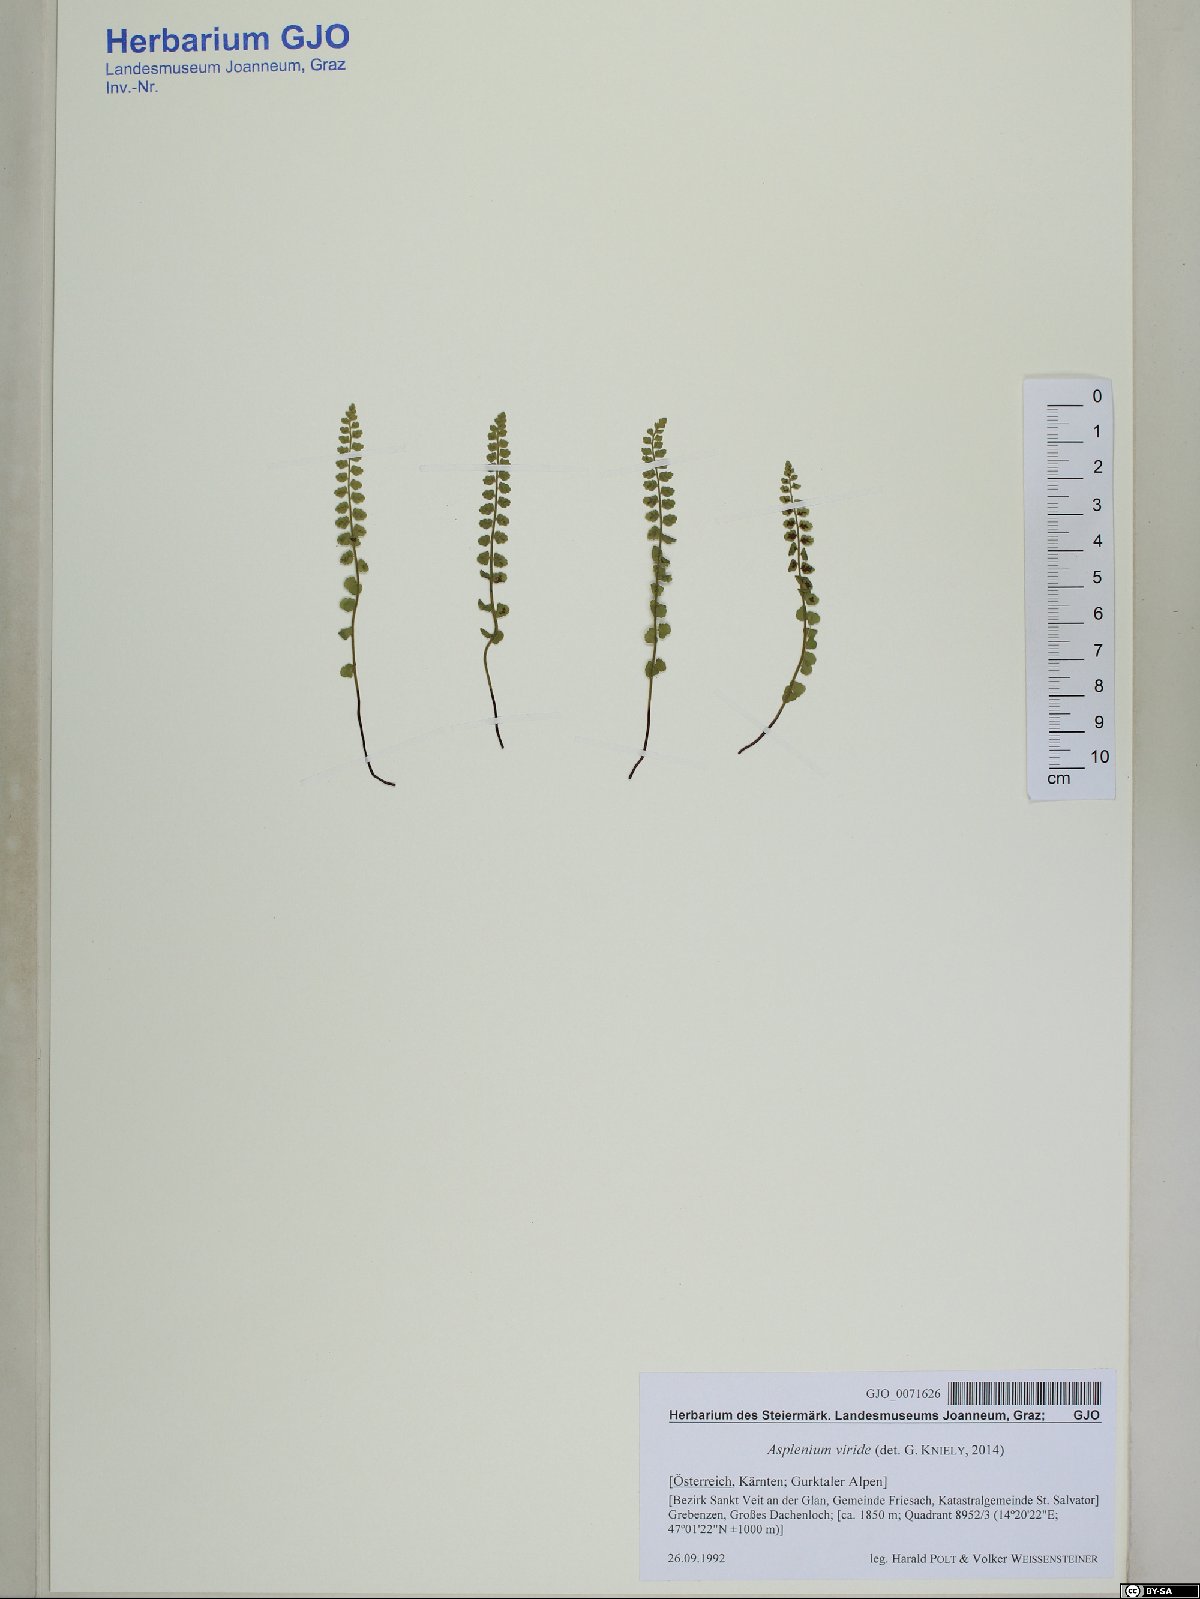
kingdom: Plantae
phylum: Tracheophyta
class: Polypodiopsida
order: Polypodiales
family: Aspleniaceae
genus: Asplenium
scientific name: Asplenium viride
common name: Green spleenwort
